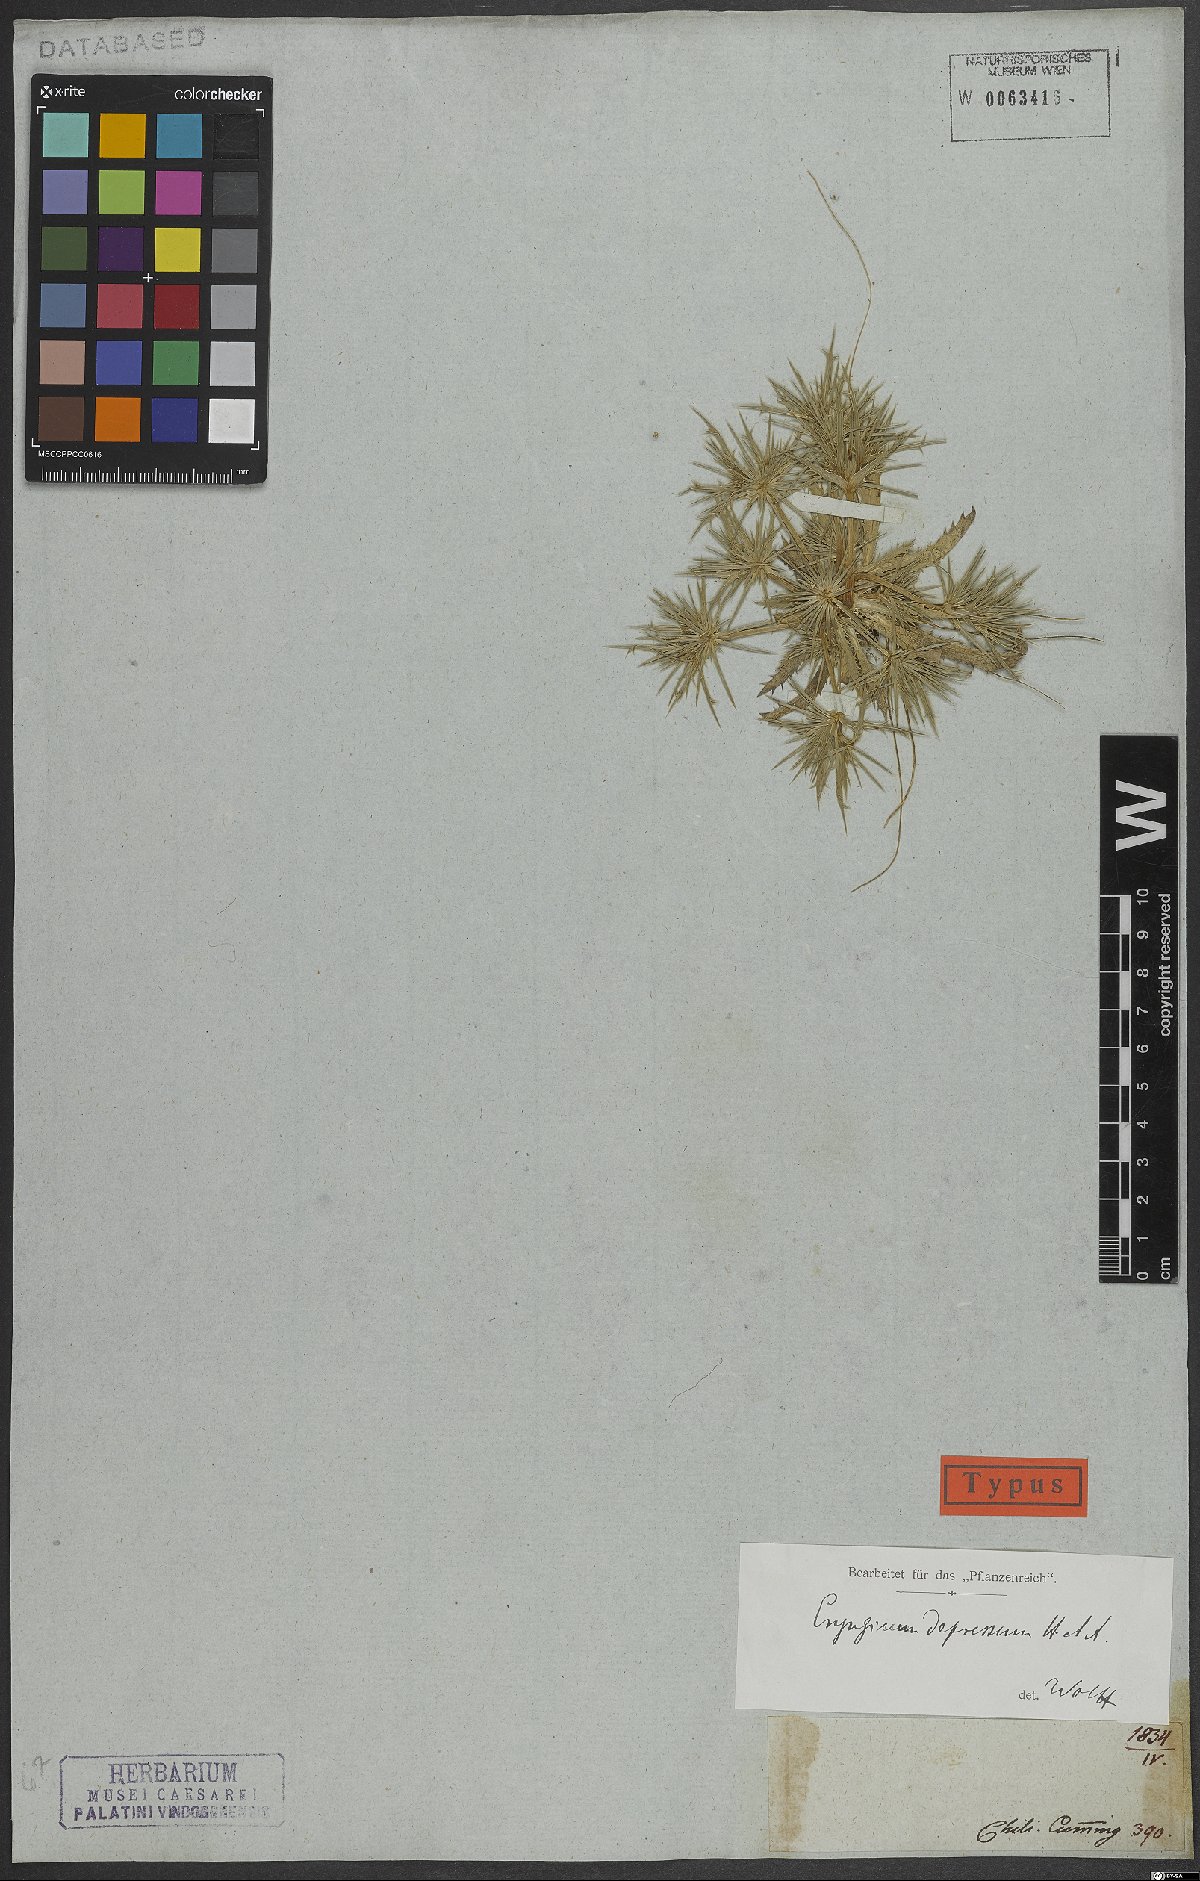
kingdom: Plantae
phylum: Tracheophyta
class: Magnoliopsida
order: Apiales
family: Apiaceae
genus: Eryngium
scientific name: Eryngium depressum
